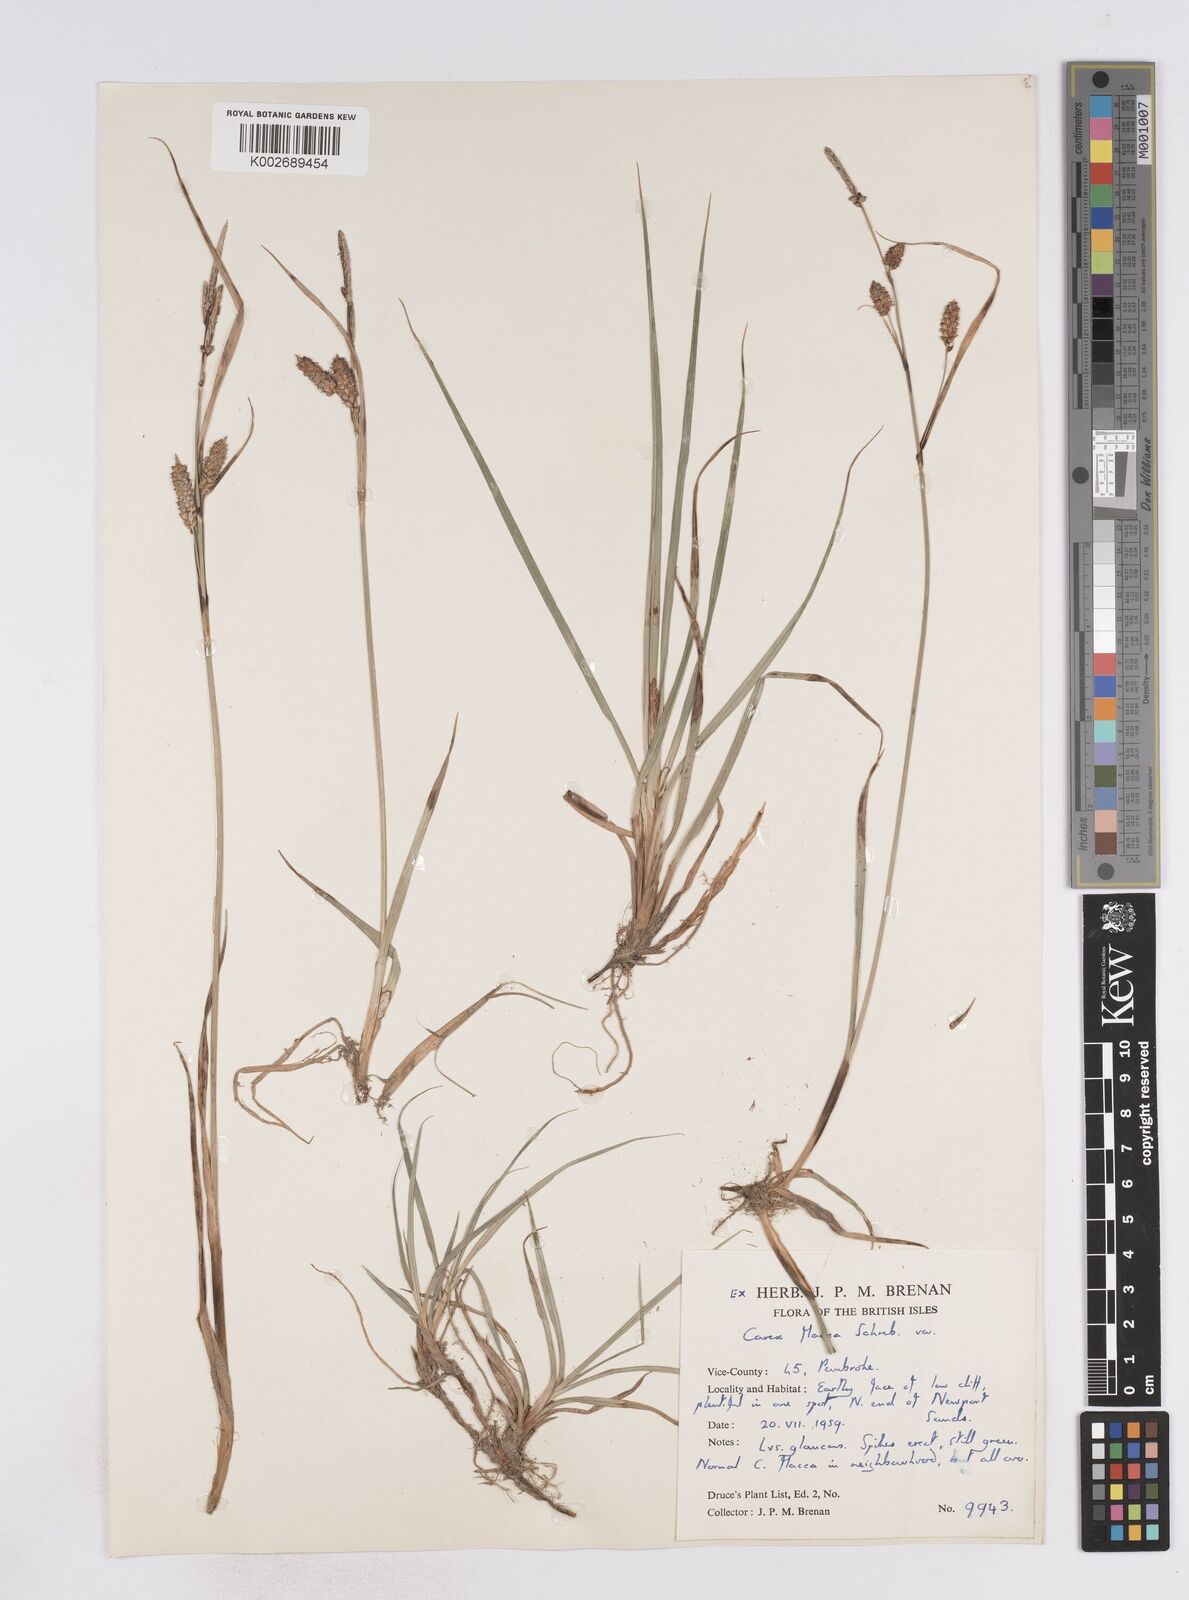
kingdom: Plantae
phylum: Tracheophyta
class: Liliopsida
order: Poales
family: Cyperaceae
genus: Carex
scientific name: Carex flacca
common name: Glaucous sedge
